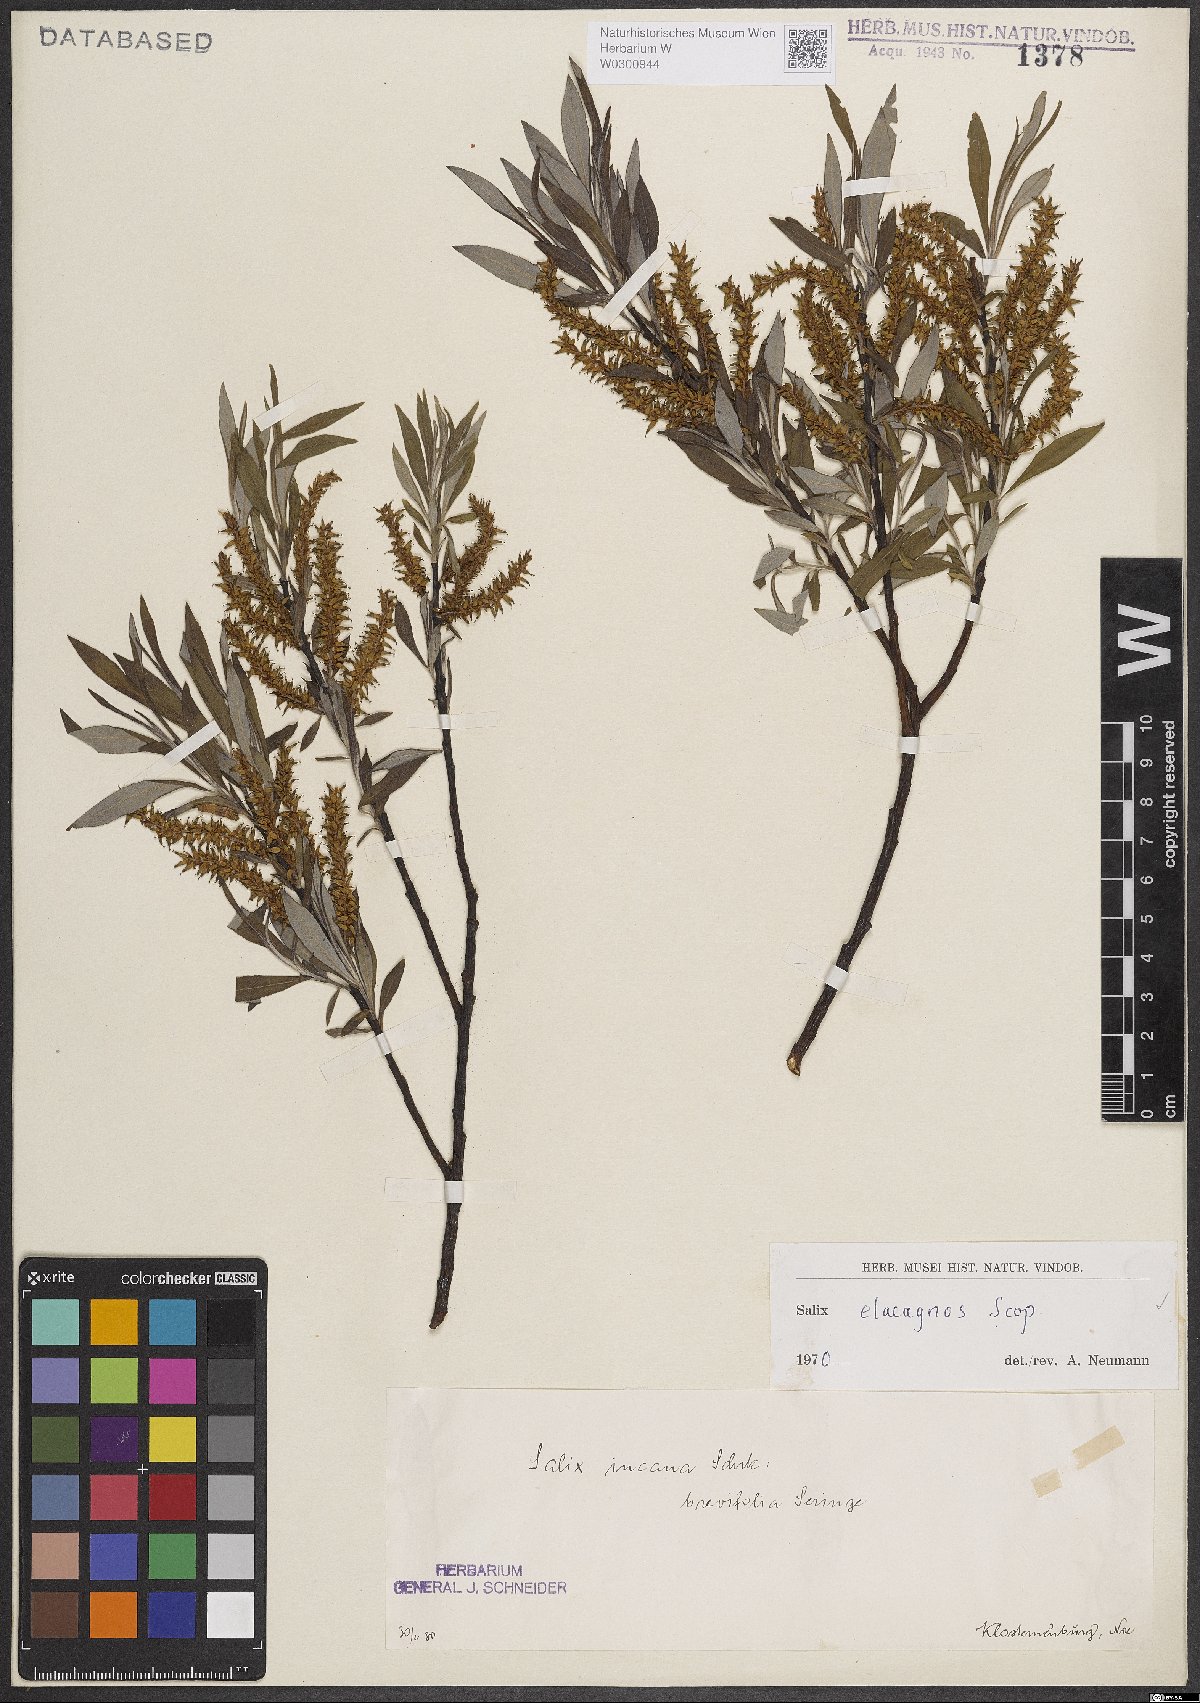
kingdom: Plantae
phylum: Tracheophyta
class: Magnoliopsida
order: Malpighiales
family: Salicaceae
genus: Salix
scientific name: Salix eleagnos
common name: Elaeagnus willow
